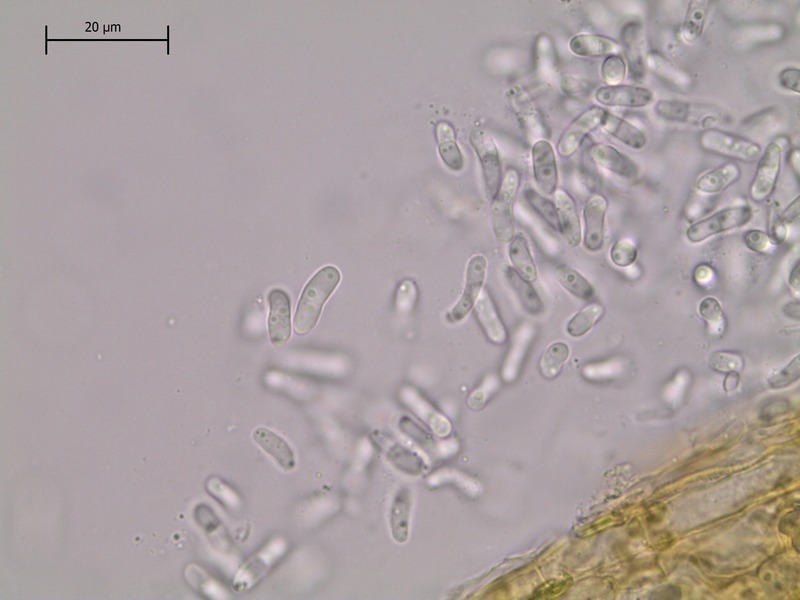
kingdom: Fungi
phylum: Ascomycota
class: Dothideomycetes
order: Pleosporales
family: Didymellaceae
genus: Ascochyta
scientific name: Ascochyta impatientis
